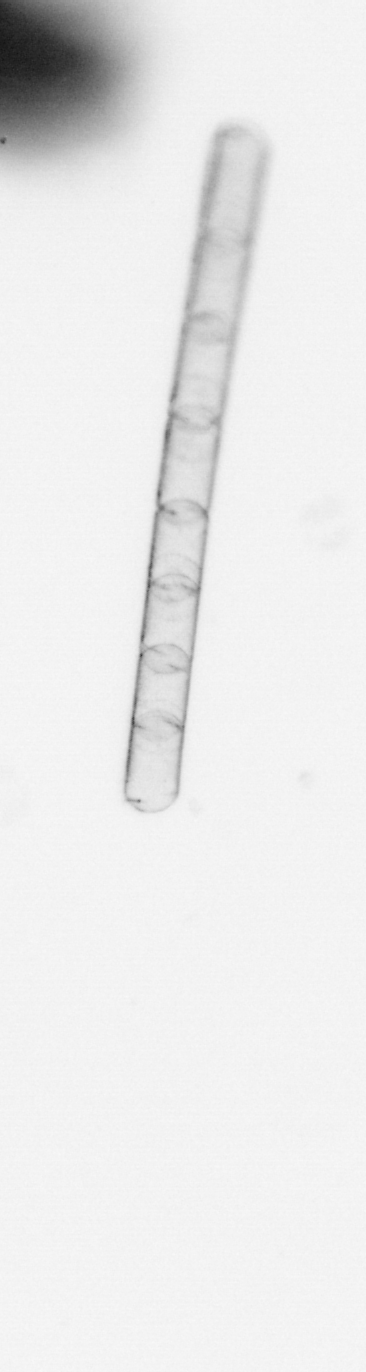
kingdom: Chromista
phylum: Ochrophyta
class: Bacillariophyceae
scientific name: Bacillariophyceae
